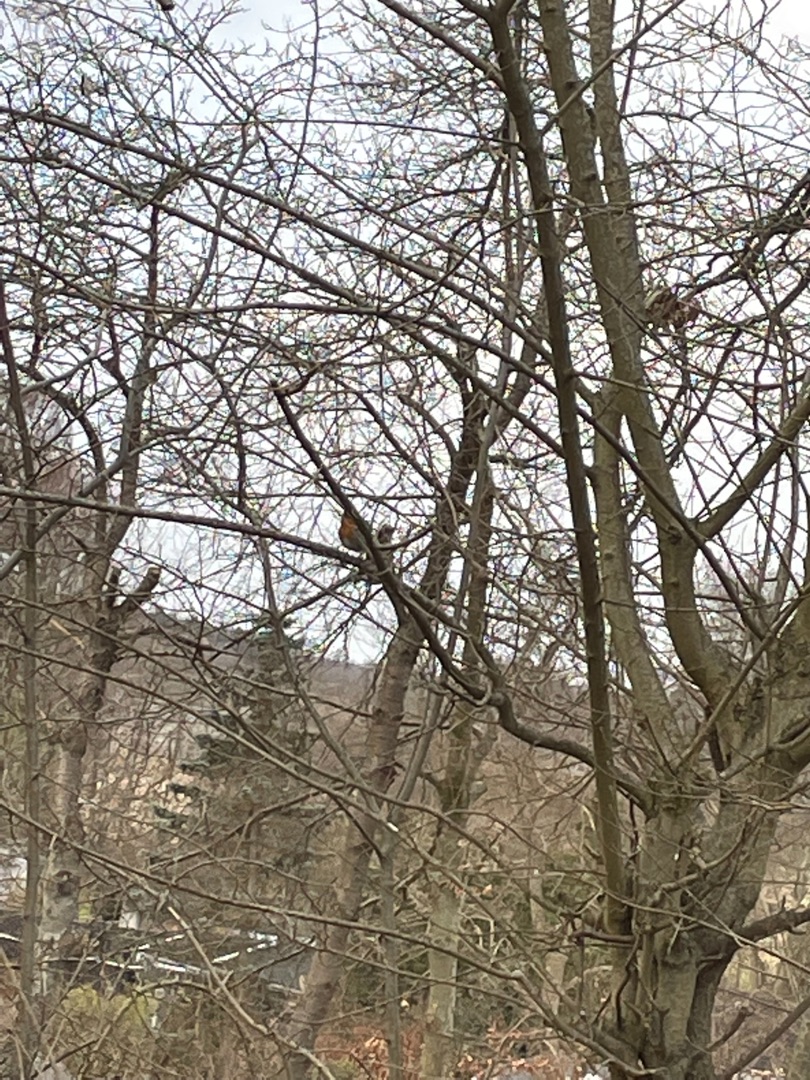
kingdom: Animalia
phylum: Chordata
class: Aves
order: Passeriformes
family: Muscicapidae
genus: Erithacus
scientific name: Erithacus rubecula
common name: Rødhals/rødkælk
